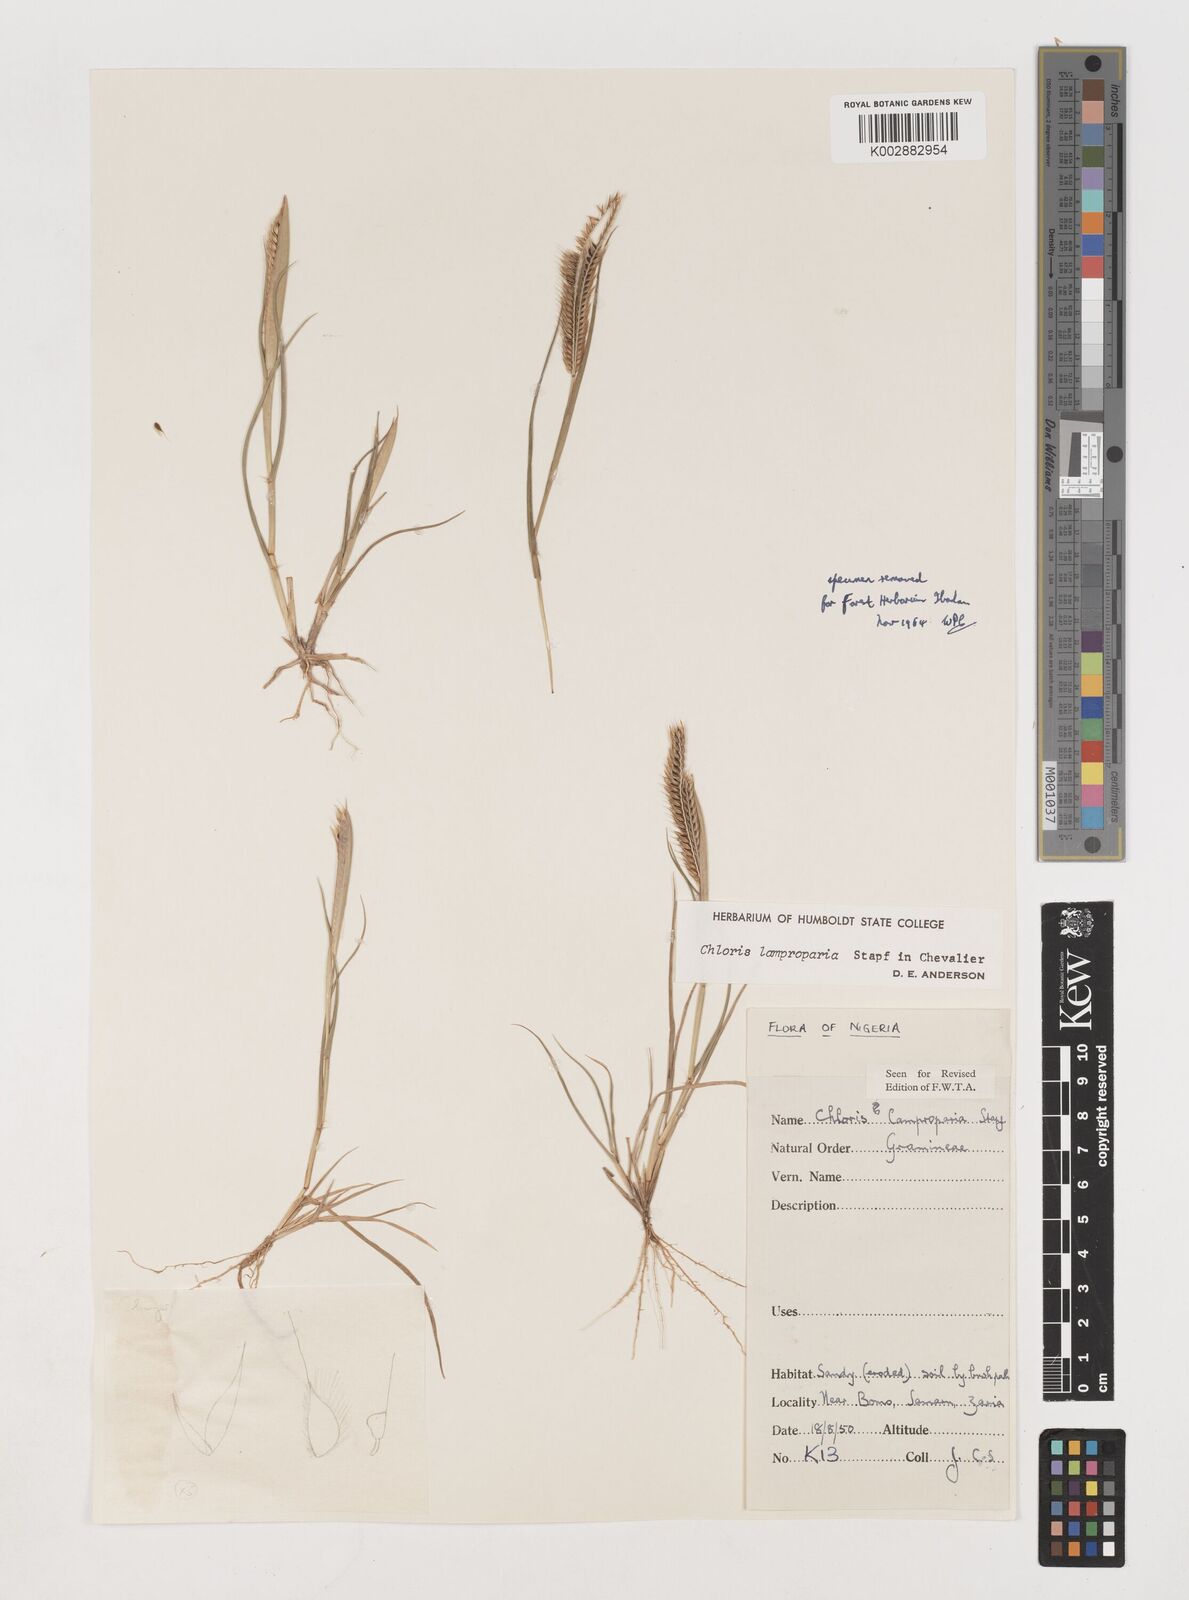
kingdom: Plantae
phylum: Tracheophyta
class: Liliopsida
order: Poales
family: Poaceae
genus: Stapfochloa
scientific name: Stapfochloa lamproparia
